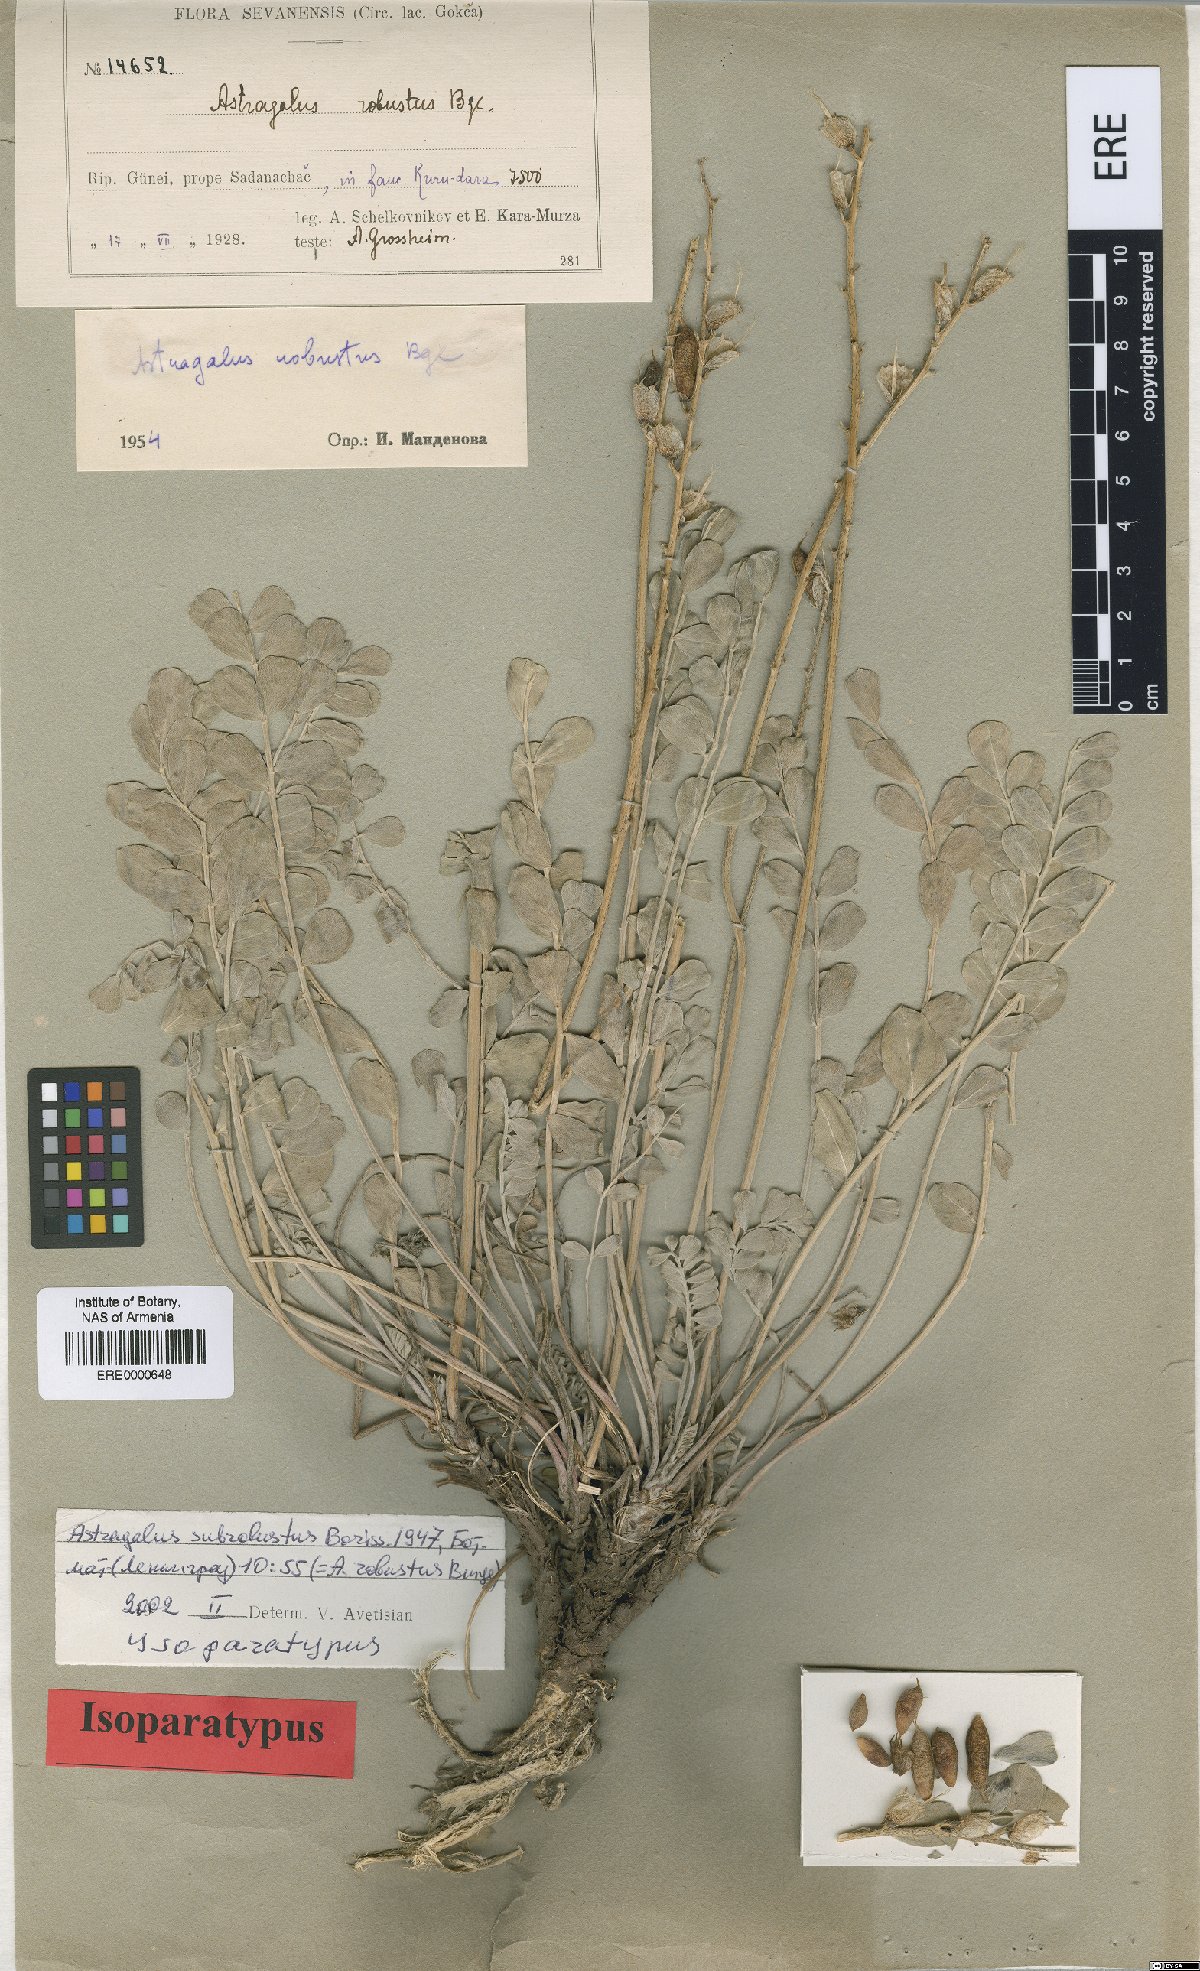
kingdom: Plantae
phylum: Tracheophyta
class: Magnoliopsida
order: Fabales
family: Fabaceae
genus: Astragalus
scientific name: Astragalus robustus
